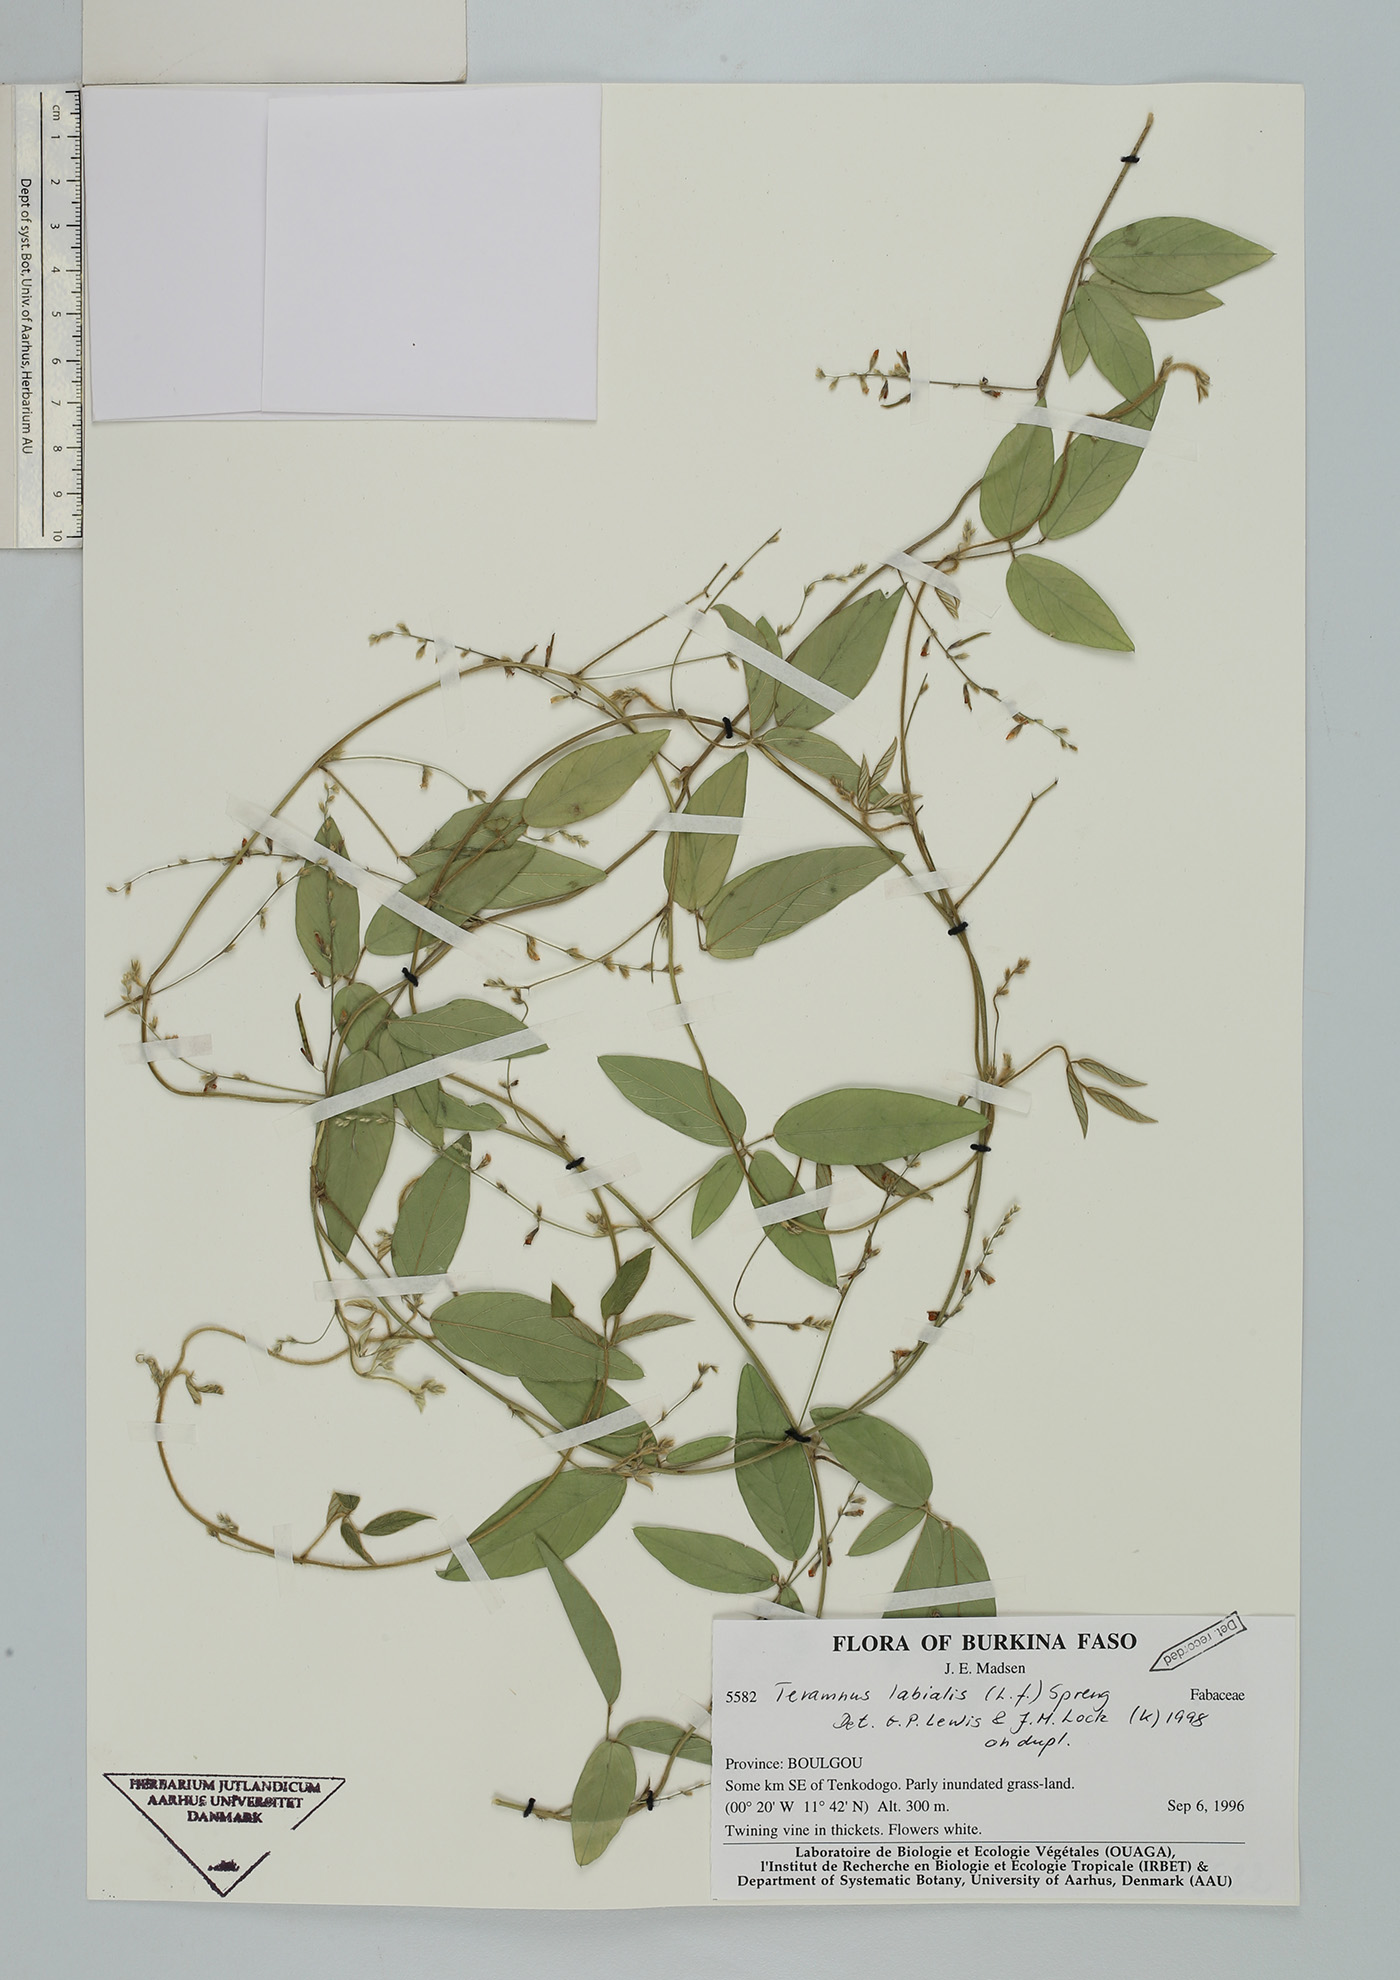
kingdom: Plantae
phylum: Tracheophyta
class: Magnoliopsida
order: Fabales
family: Fabaceae
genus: Teramnus
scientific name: Teramnus labialis
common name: Blue wiss
